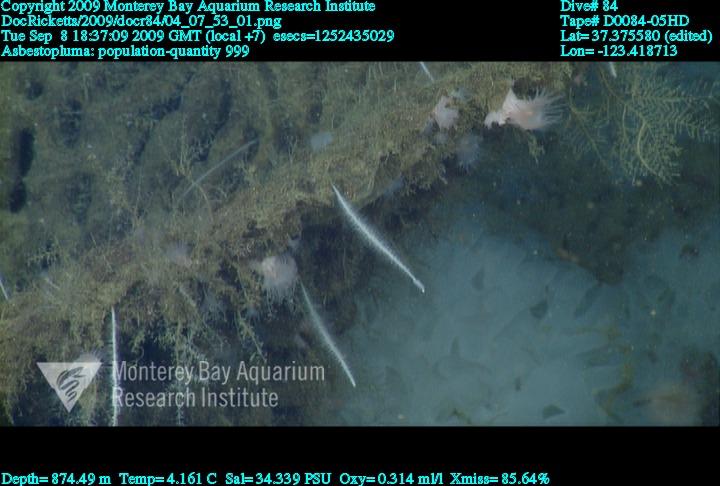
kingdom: Animalia
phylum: Porifera
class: Demospongiae
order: Poecilosclerida
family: Cladorhizidae
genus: Asbestopluma
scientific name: Asbestopluma
